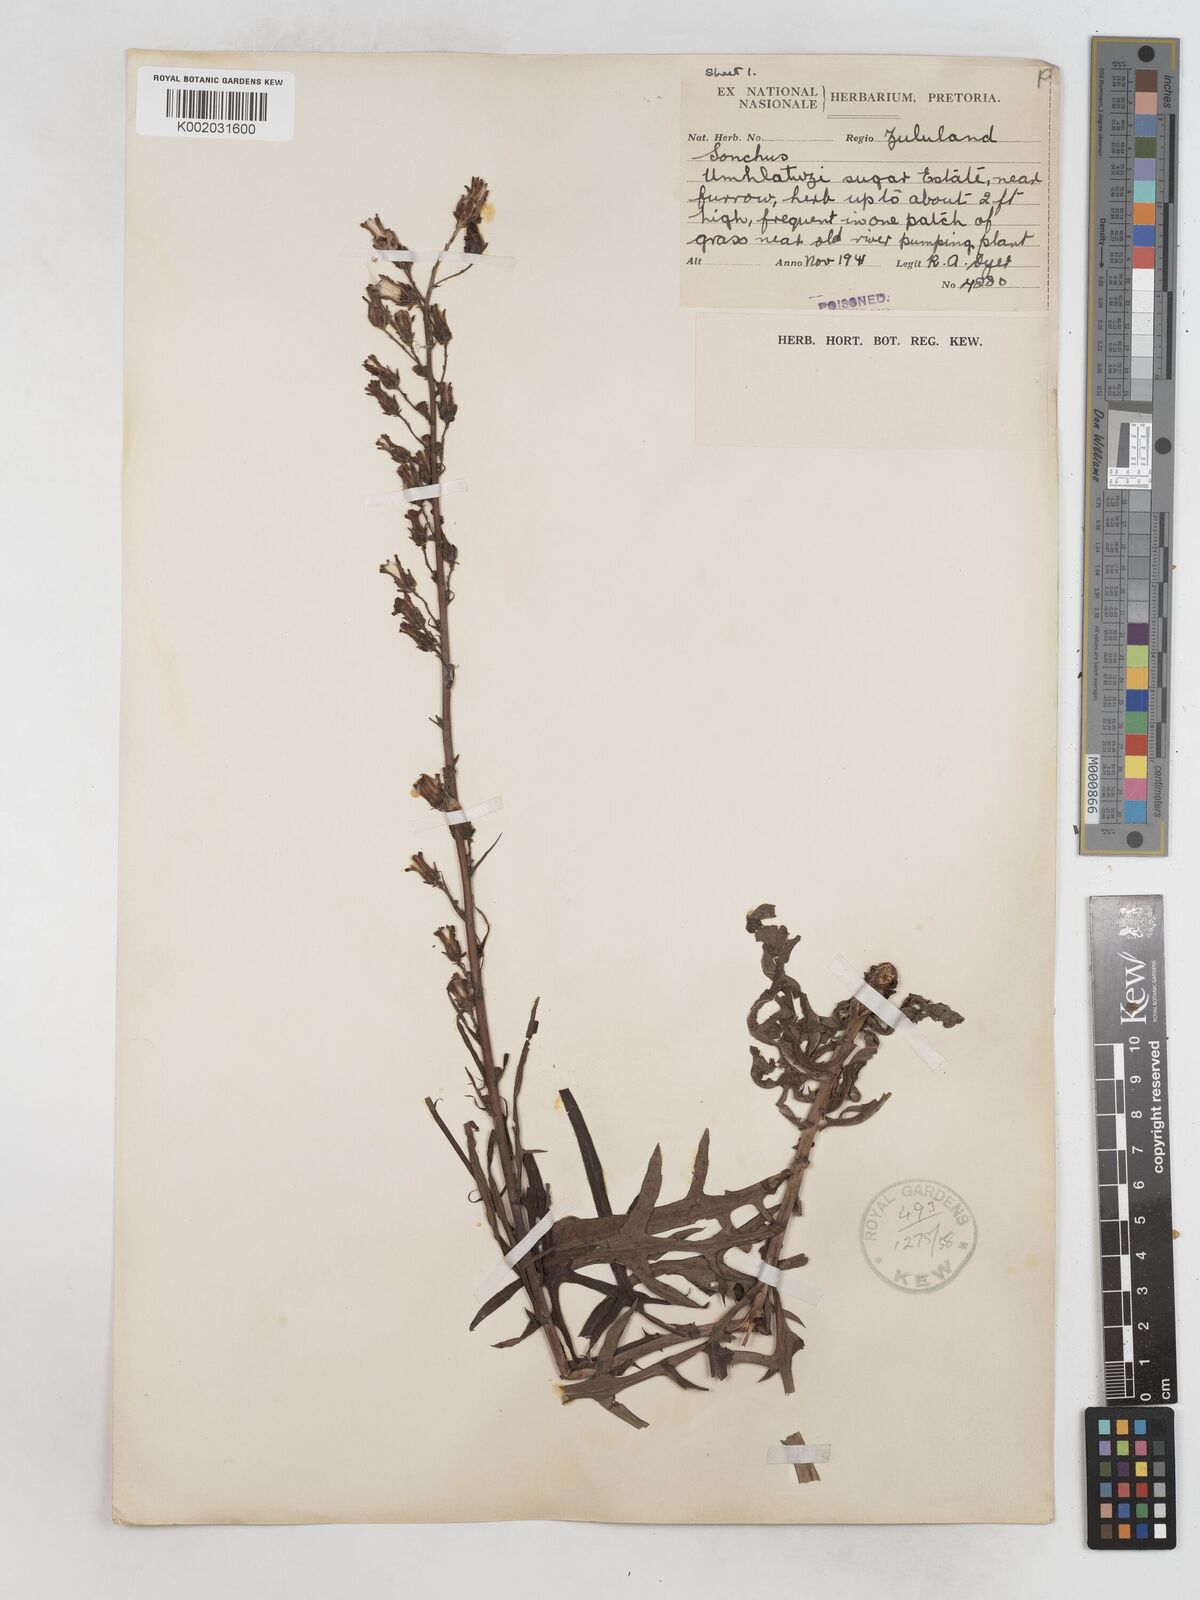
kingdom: Plantae
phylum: Tracheophyta
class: Magnoliopsida
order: Asterales
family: Asteraceae
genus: Lactuca
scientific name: Lactuca indica
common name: Wild lettuce
